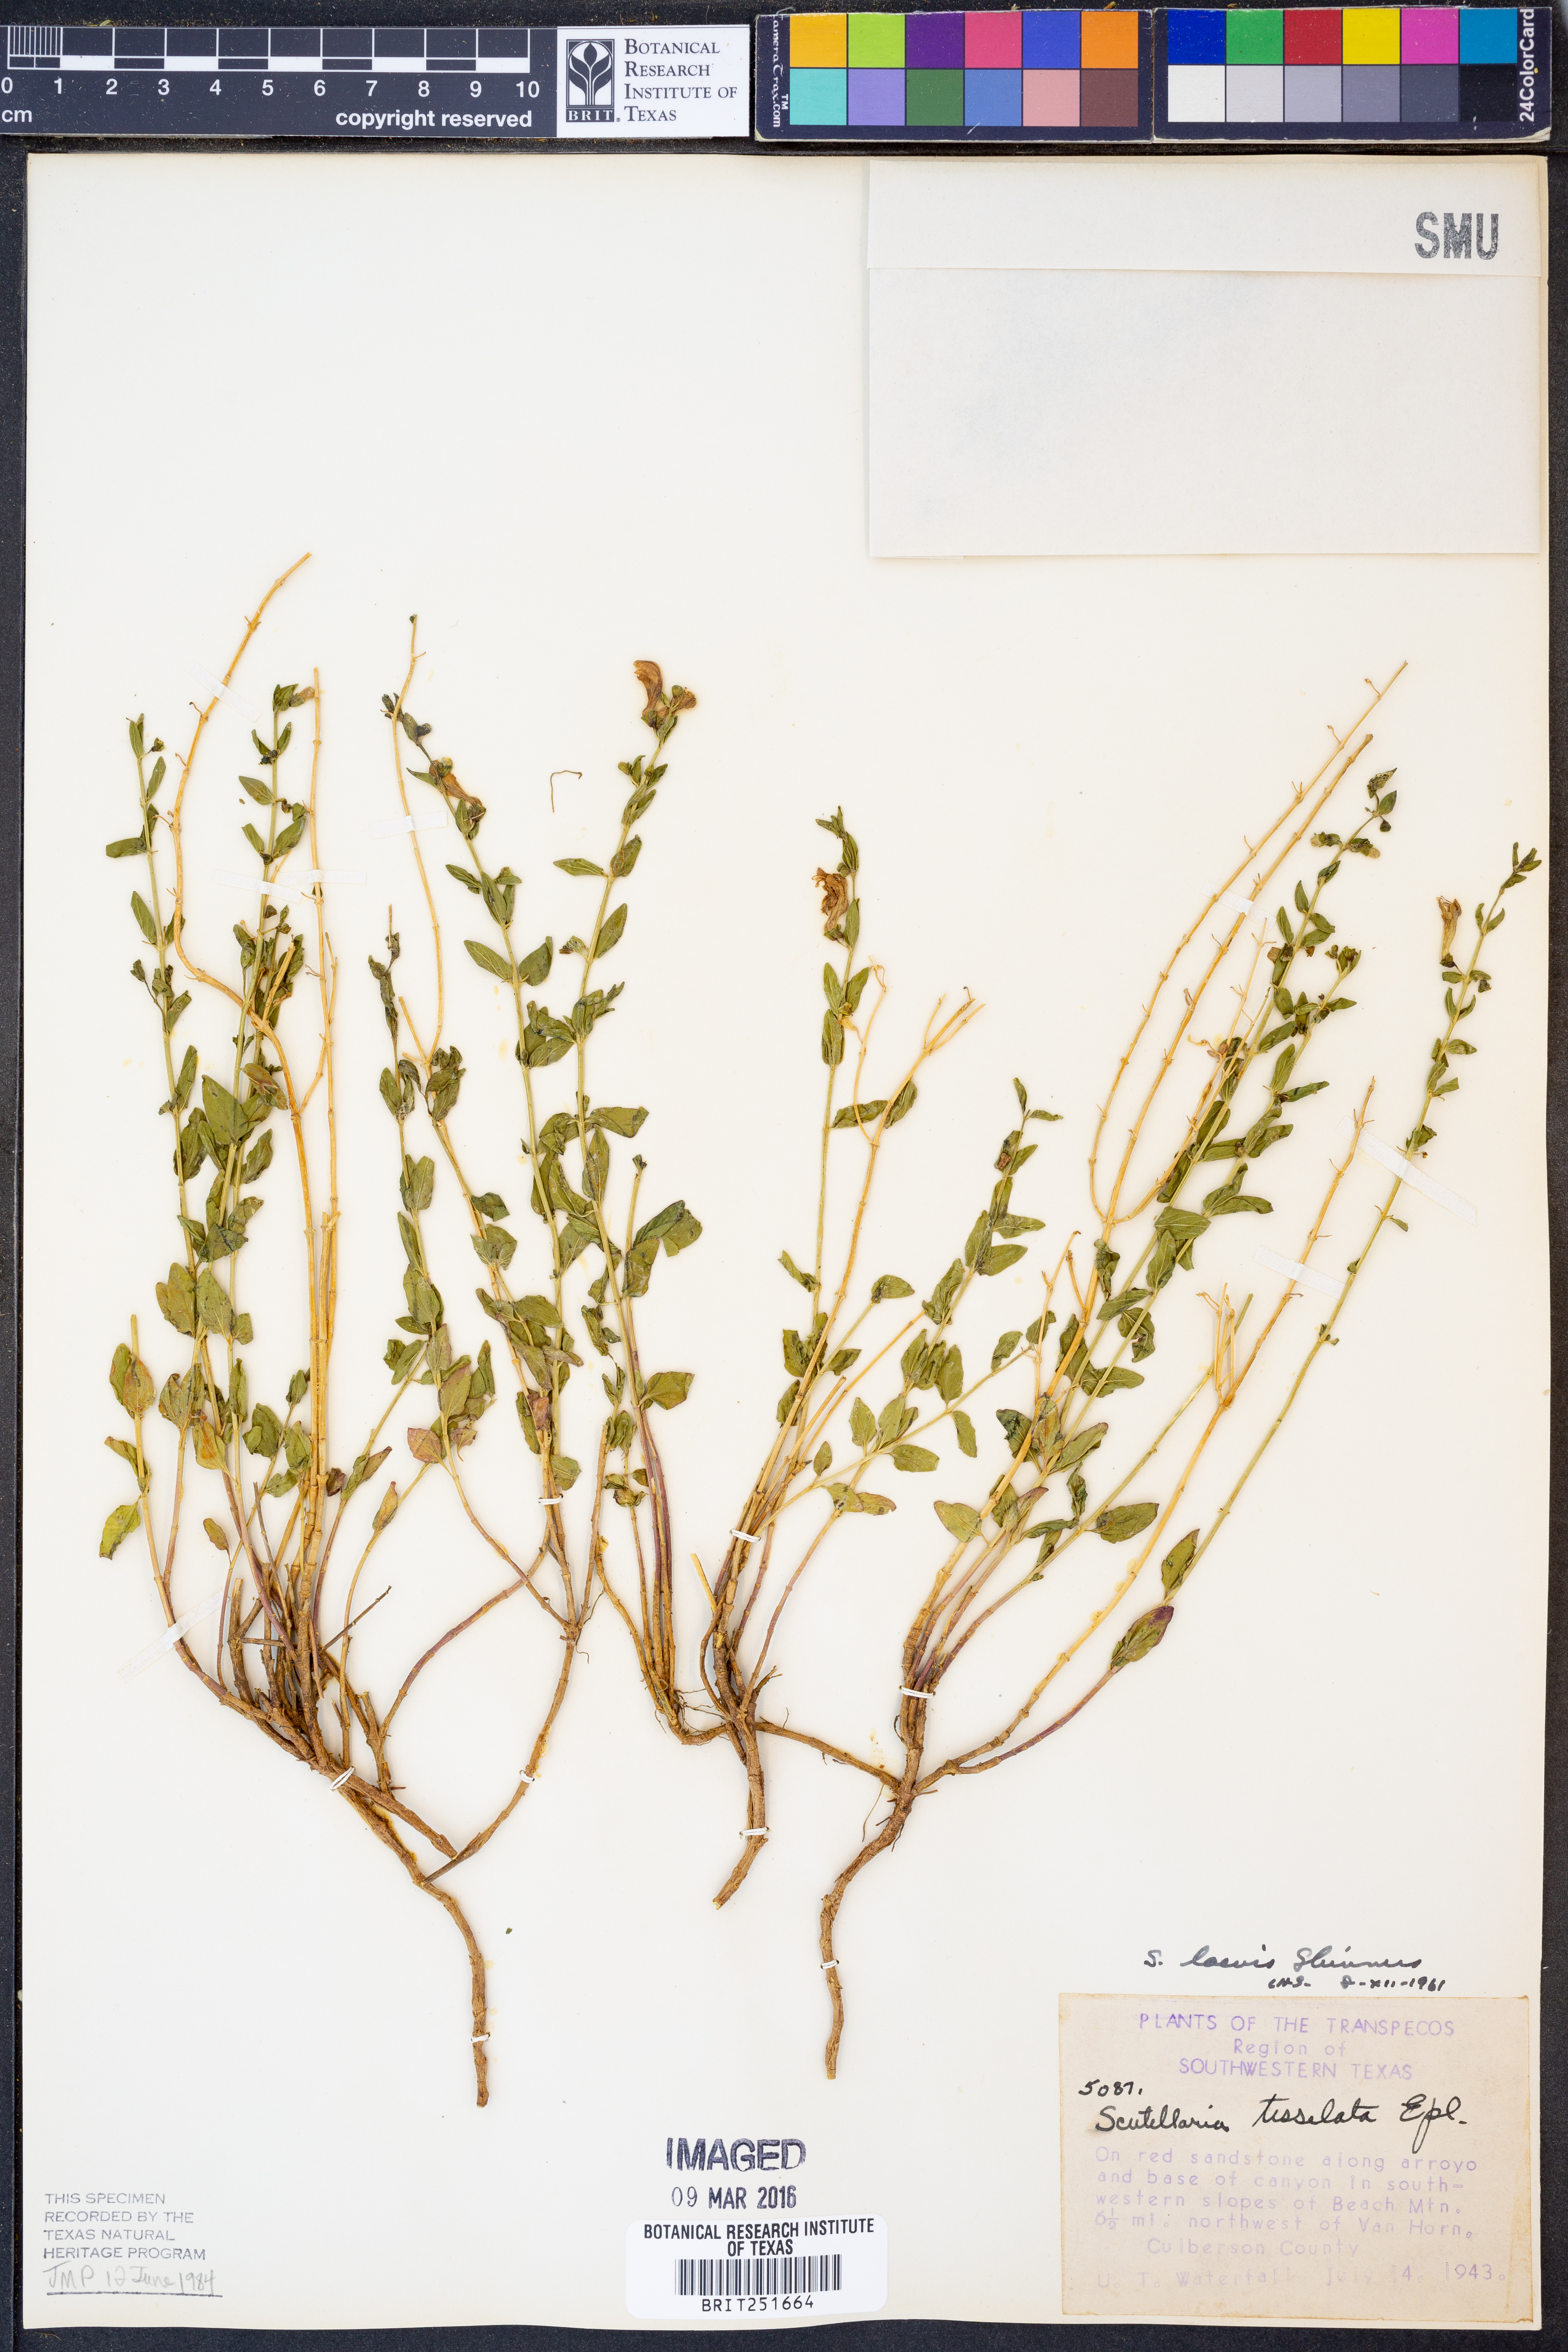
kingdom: Plantae
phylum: Tracheophyta
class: Magnoliopsida
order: Lamiales
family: Lamiaceae
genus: Scutellaria
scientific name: Scutellaria laevis
